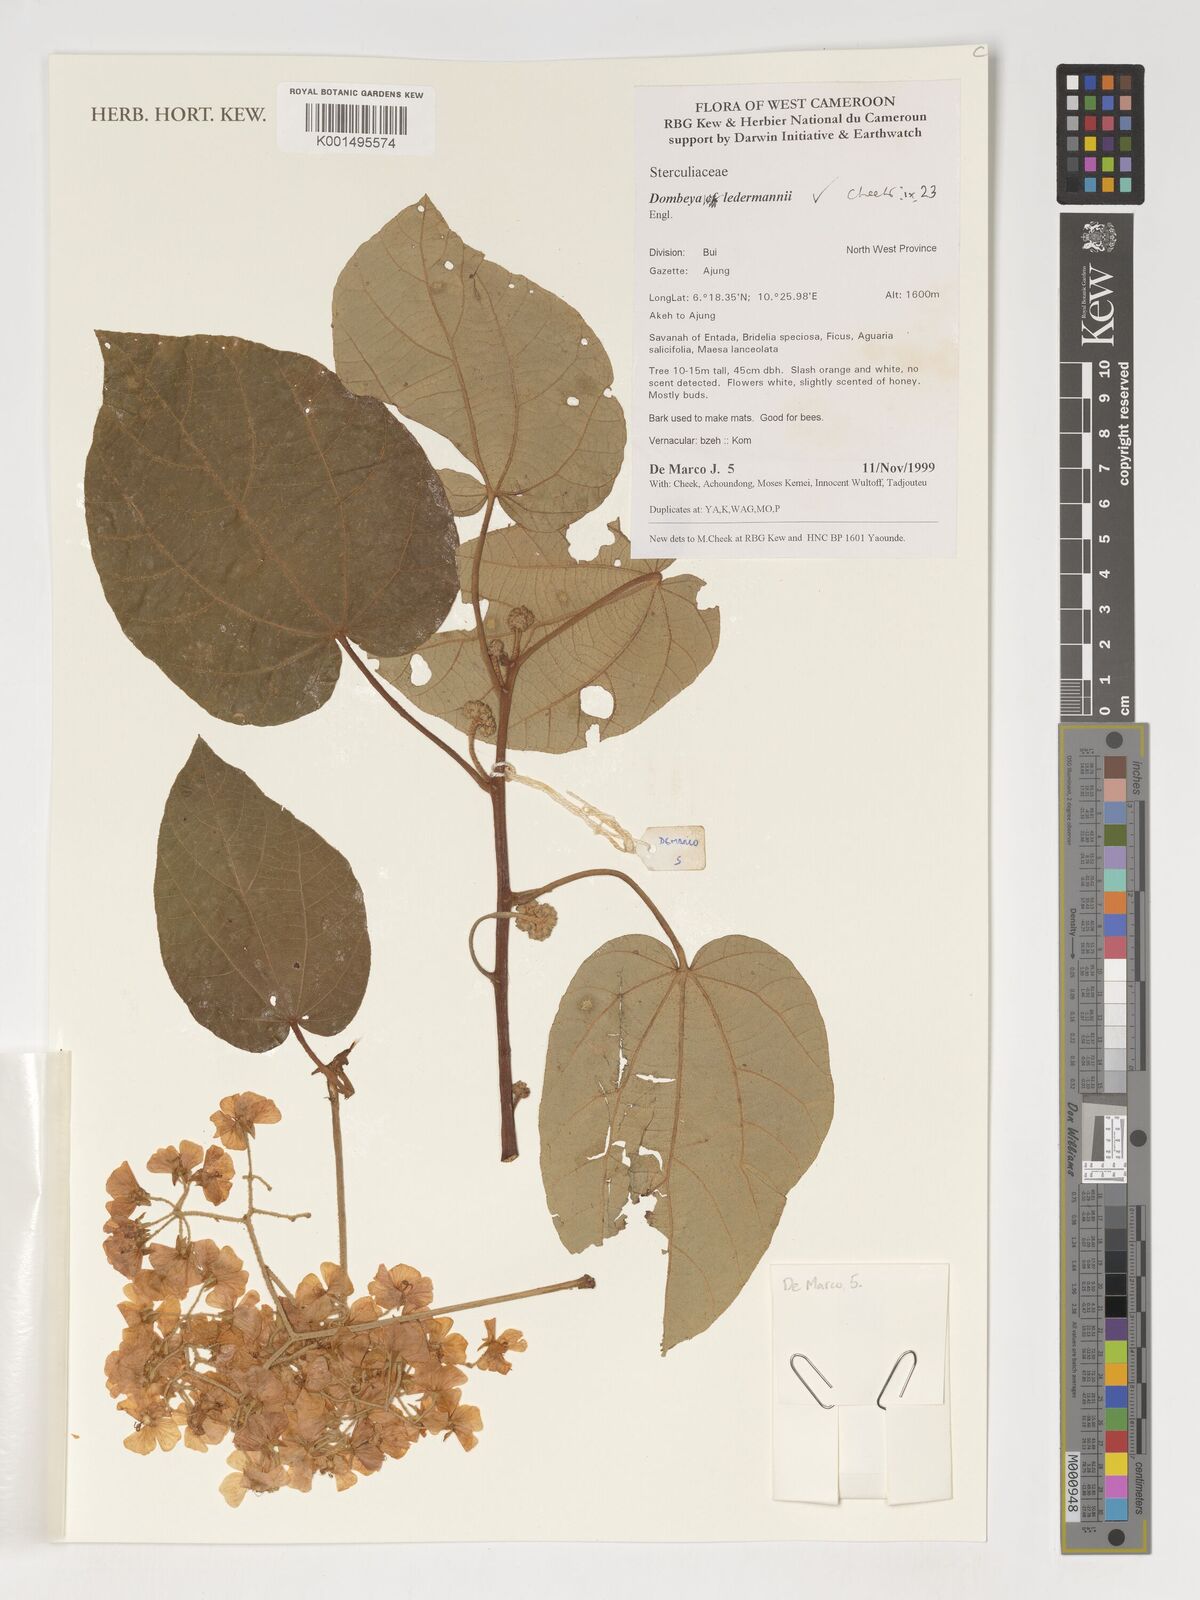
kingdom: Plantae
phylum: Tracheophyta
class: Magnoliopsida
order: Malvales
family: Malvaceae
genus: Dombeya
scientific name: Dombeya ledermannii
